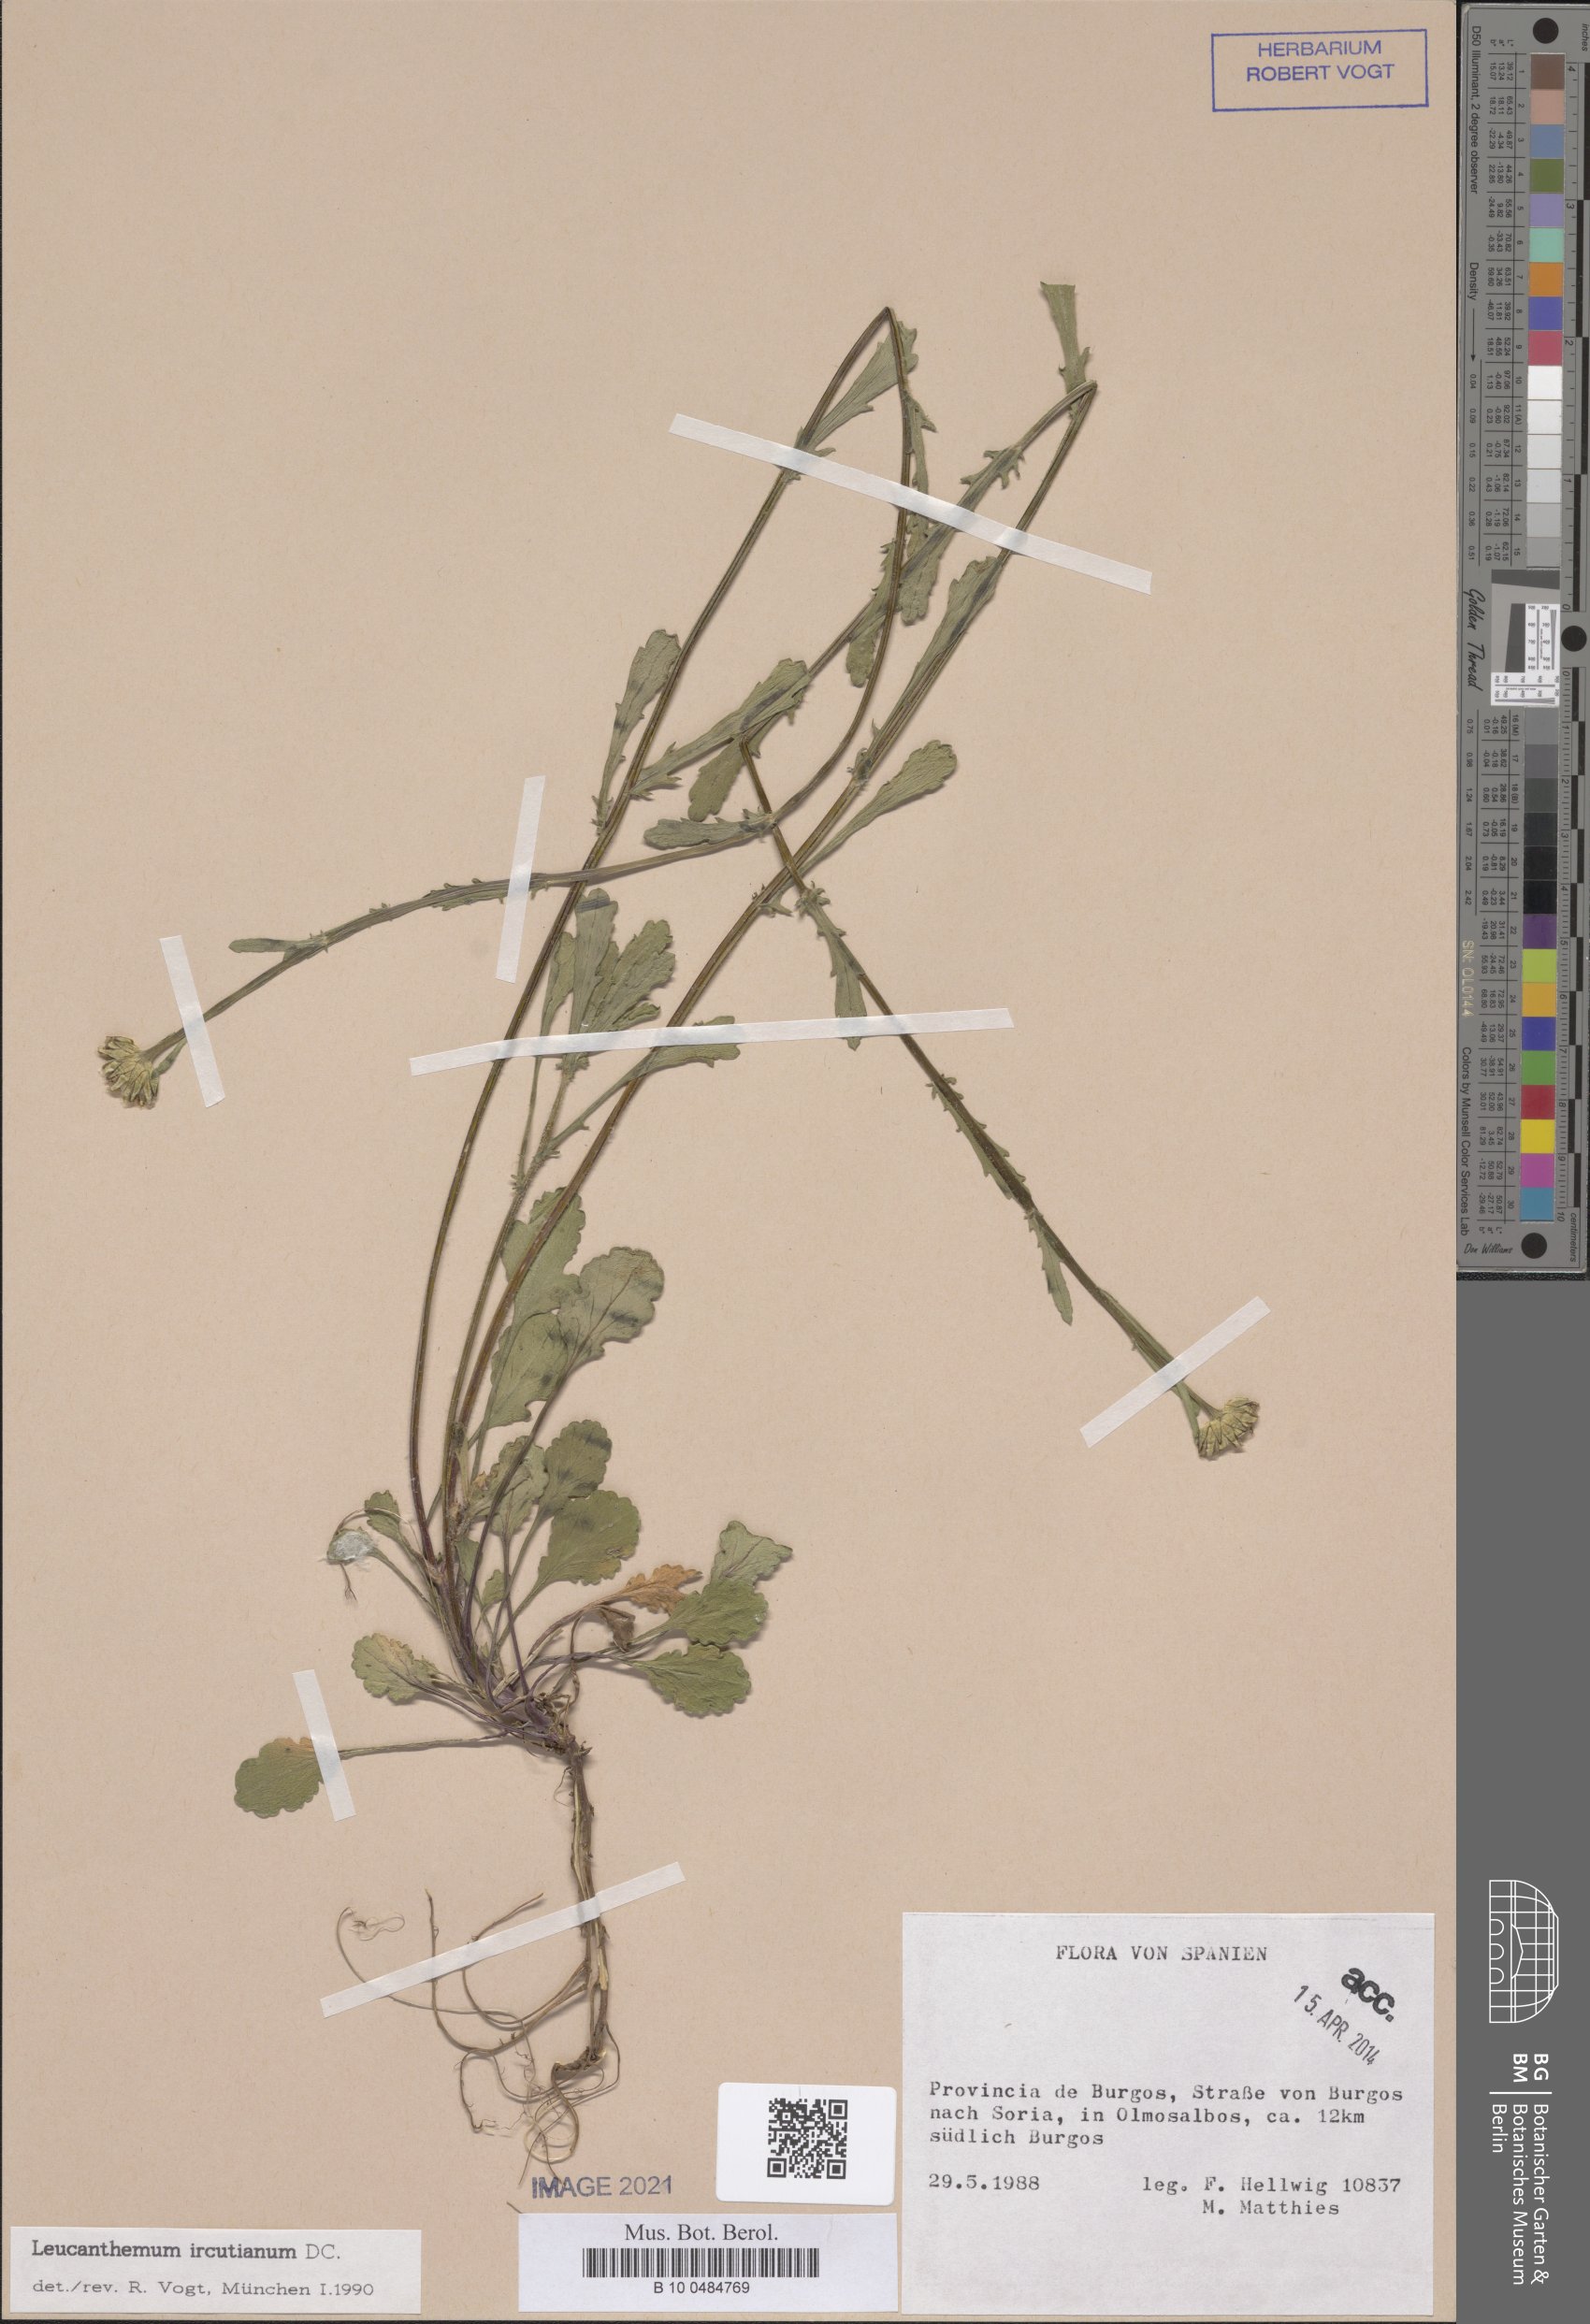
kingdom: Plantae
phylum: Tracheophyta
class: Magnoliopsida
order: Asterales
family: Asteraceae
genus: Leucanthemum
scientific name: Leucanthemum ircutianum
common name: Daisy
